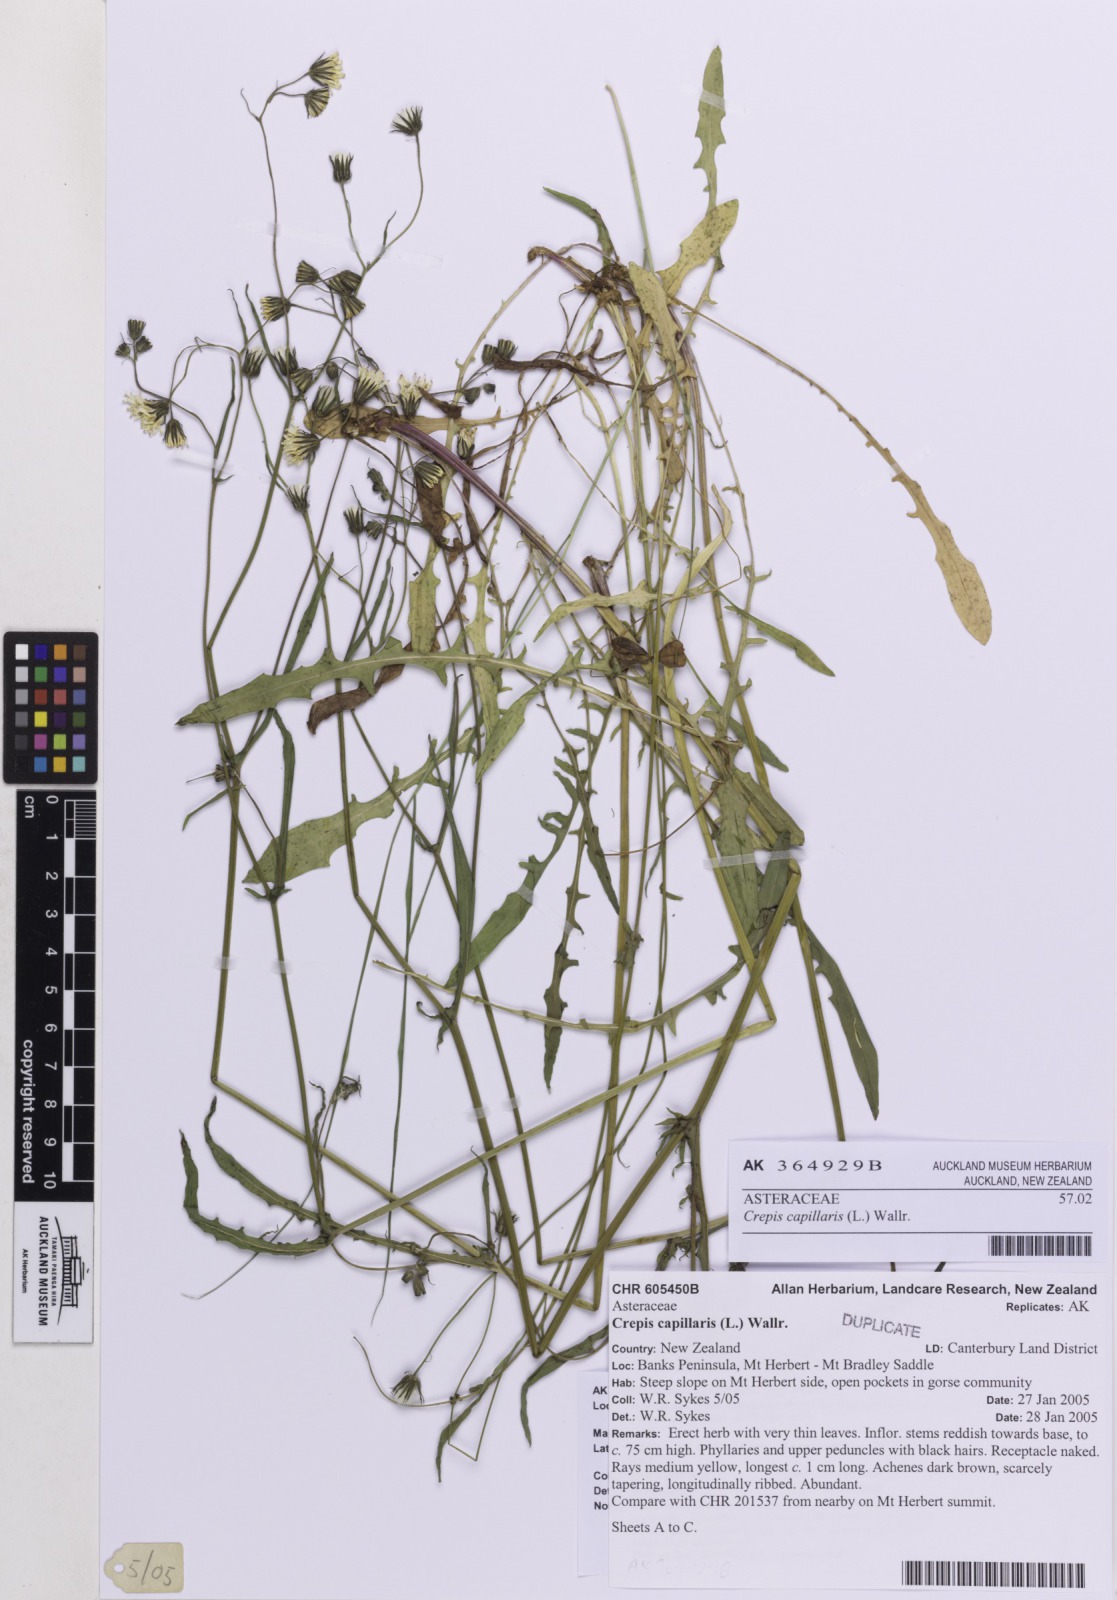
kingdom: Plantae
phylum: Tracheophyta
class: Magnoliopsida
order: Asterales
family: Asteraceae
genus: Crepis
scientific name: Crepis capillaris
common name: Smooth hawksbeard
